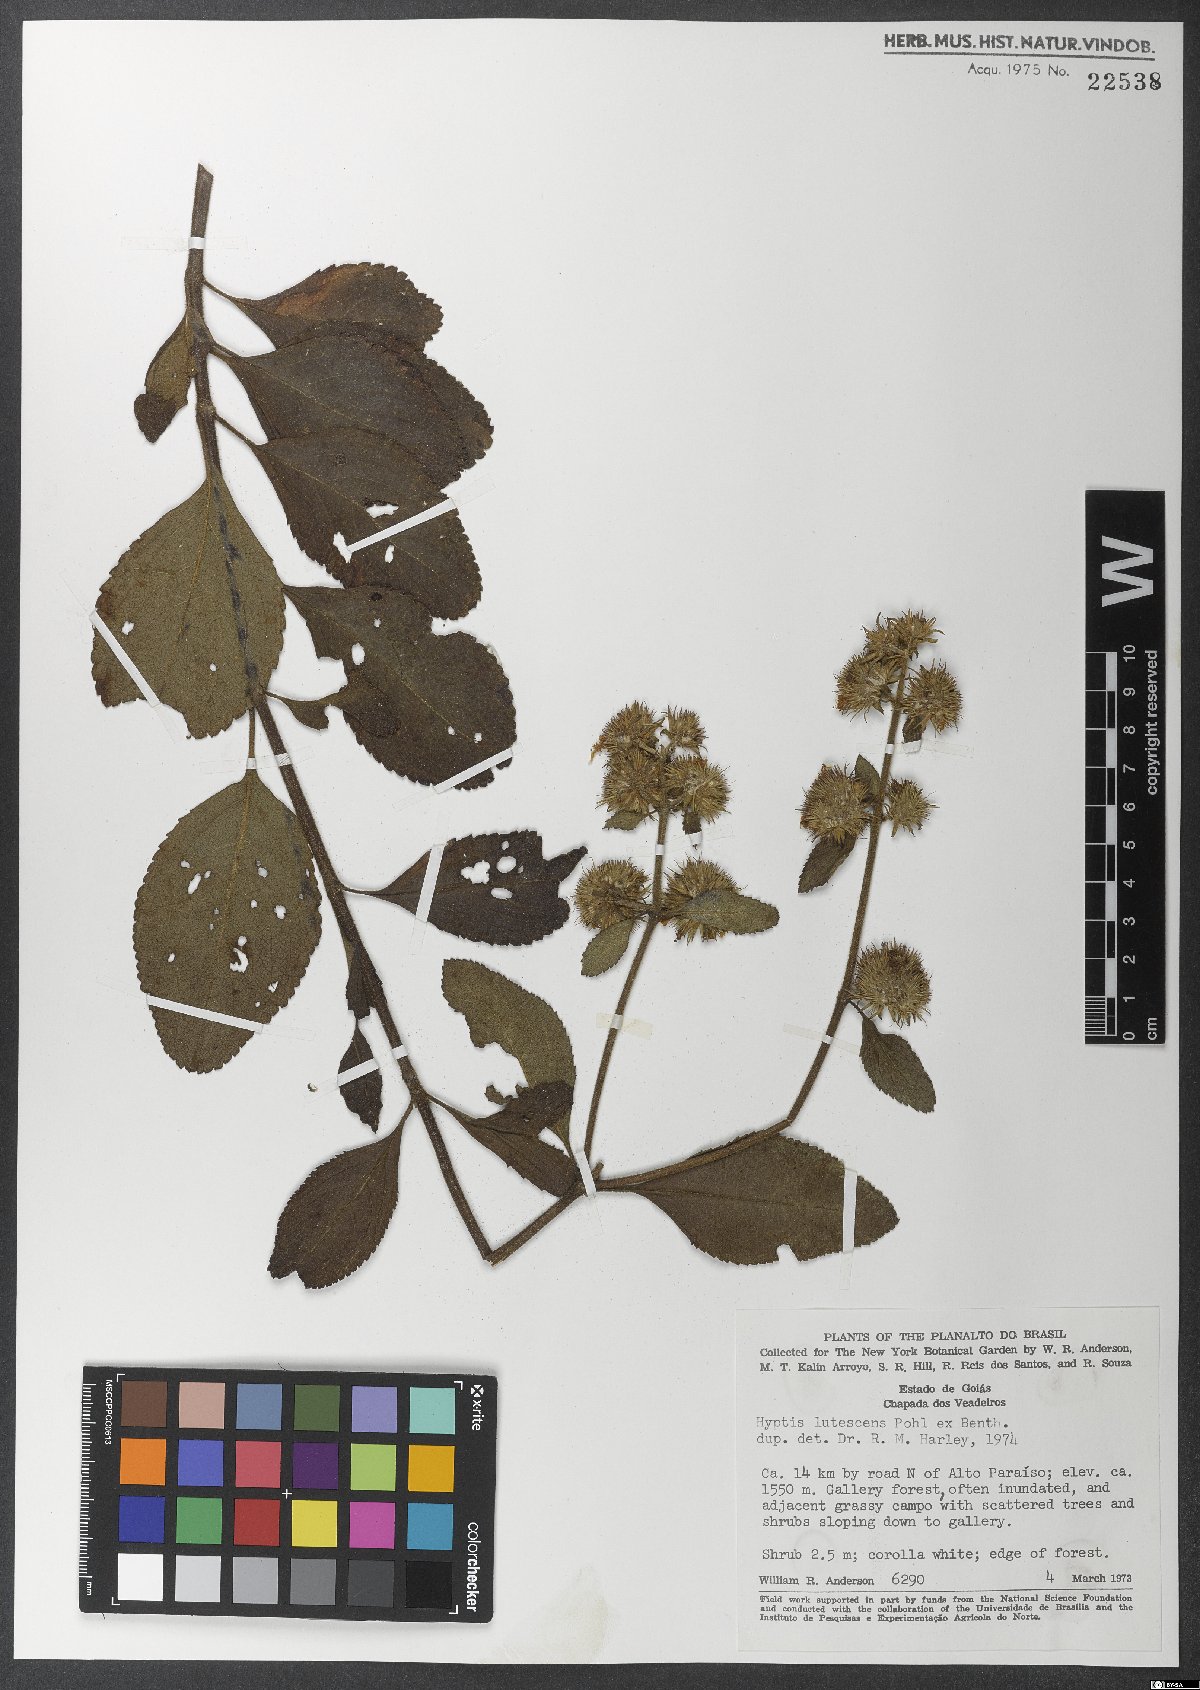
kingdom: Plantae
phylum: Tracheophyta
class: Magnoliopsida
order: Lamiales
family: Lamiaceae
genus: Hyptis
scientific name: Hyptis lutescens
